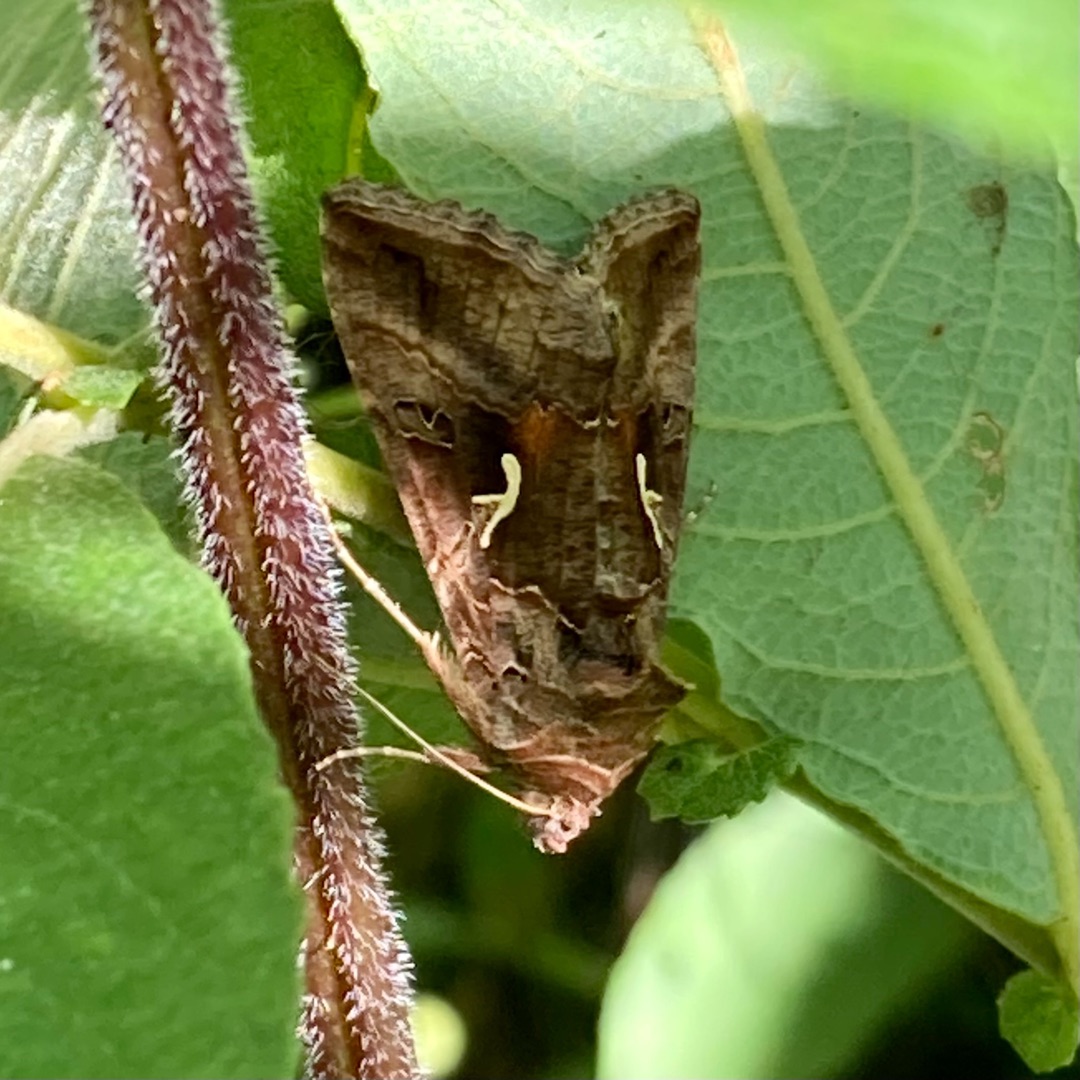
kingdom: Animalia
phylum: Arthropoda
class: Insecta
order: Lepidoptera
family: Noctuidae
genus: Autographa
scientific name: Autographa gamma
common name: Gammaugle
